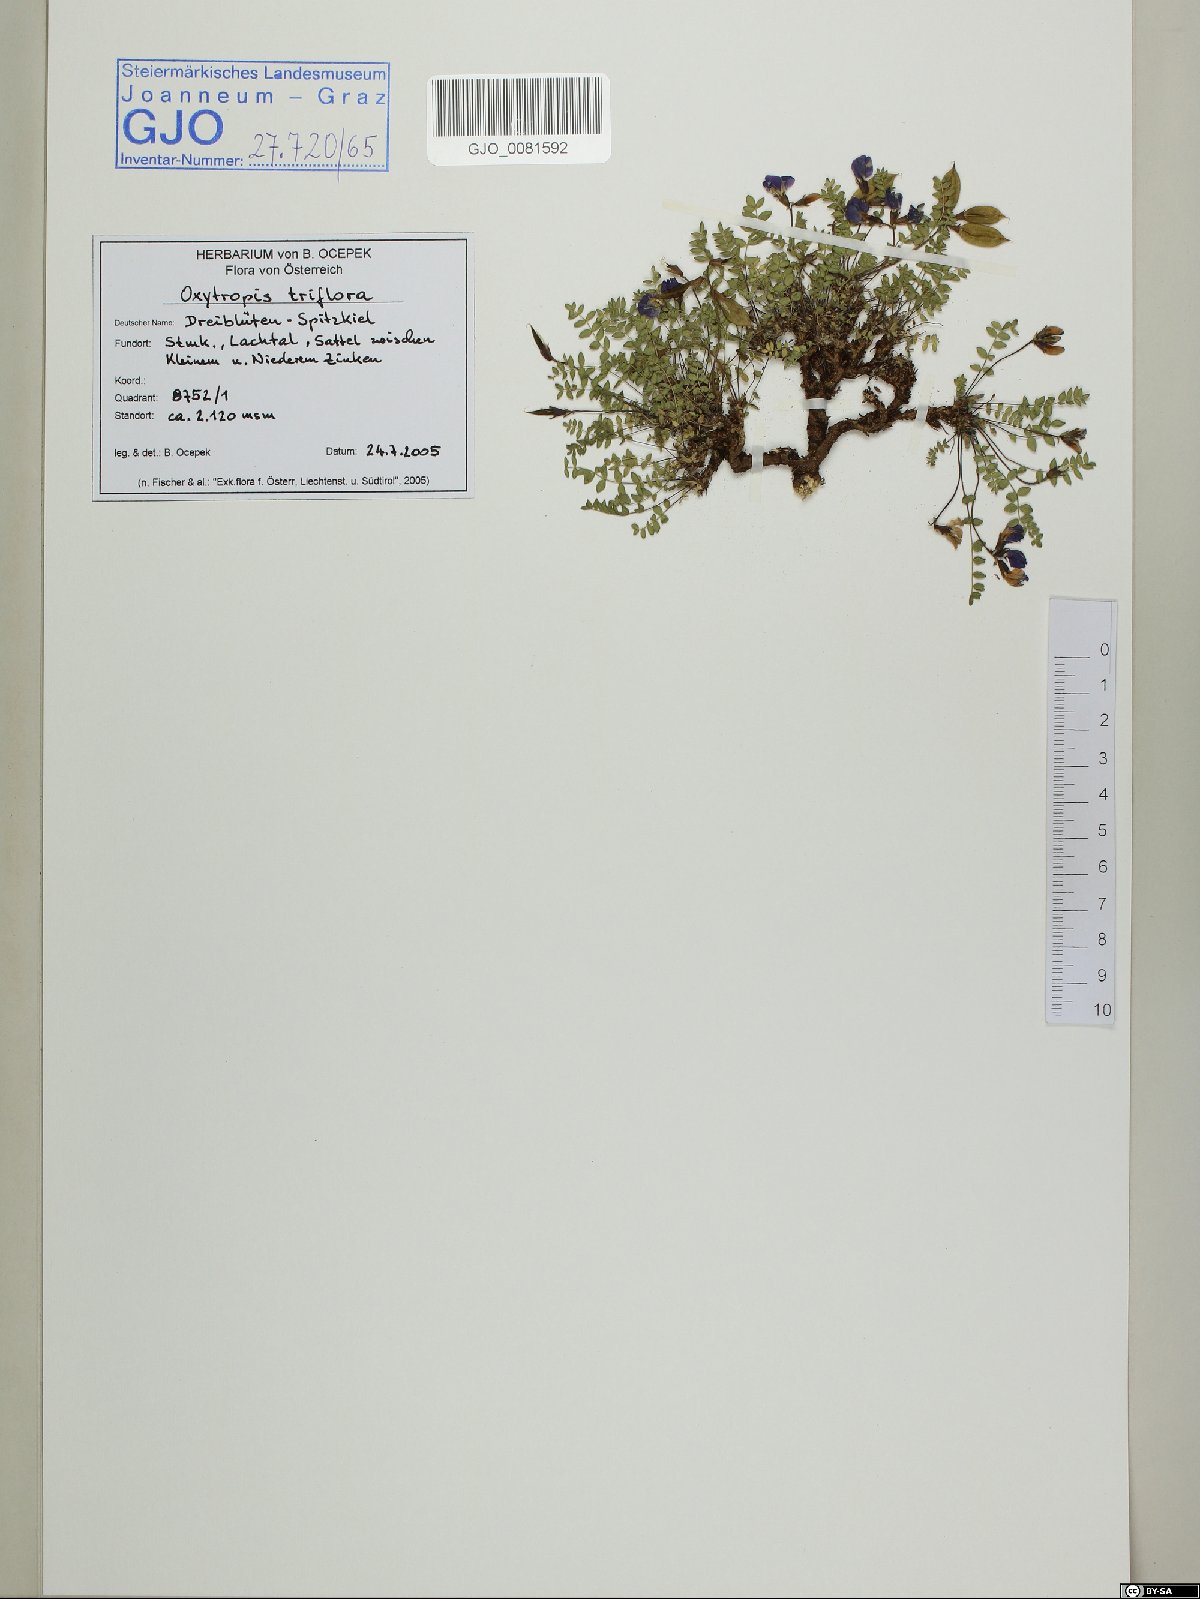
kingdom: Plantae
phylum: Tracheophyta
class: Magnoliopsida
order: Fabales
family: Fabaceae
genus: Oxytropis
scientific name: Oxytropis triflora
